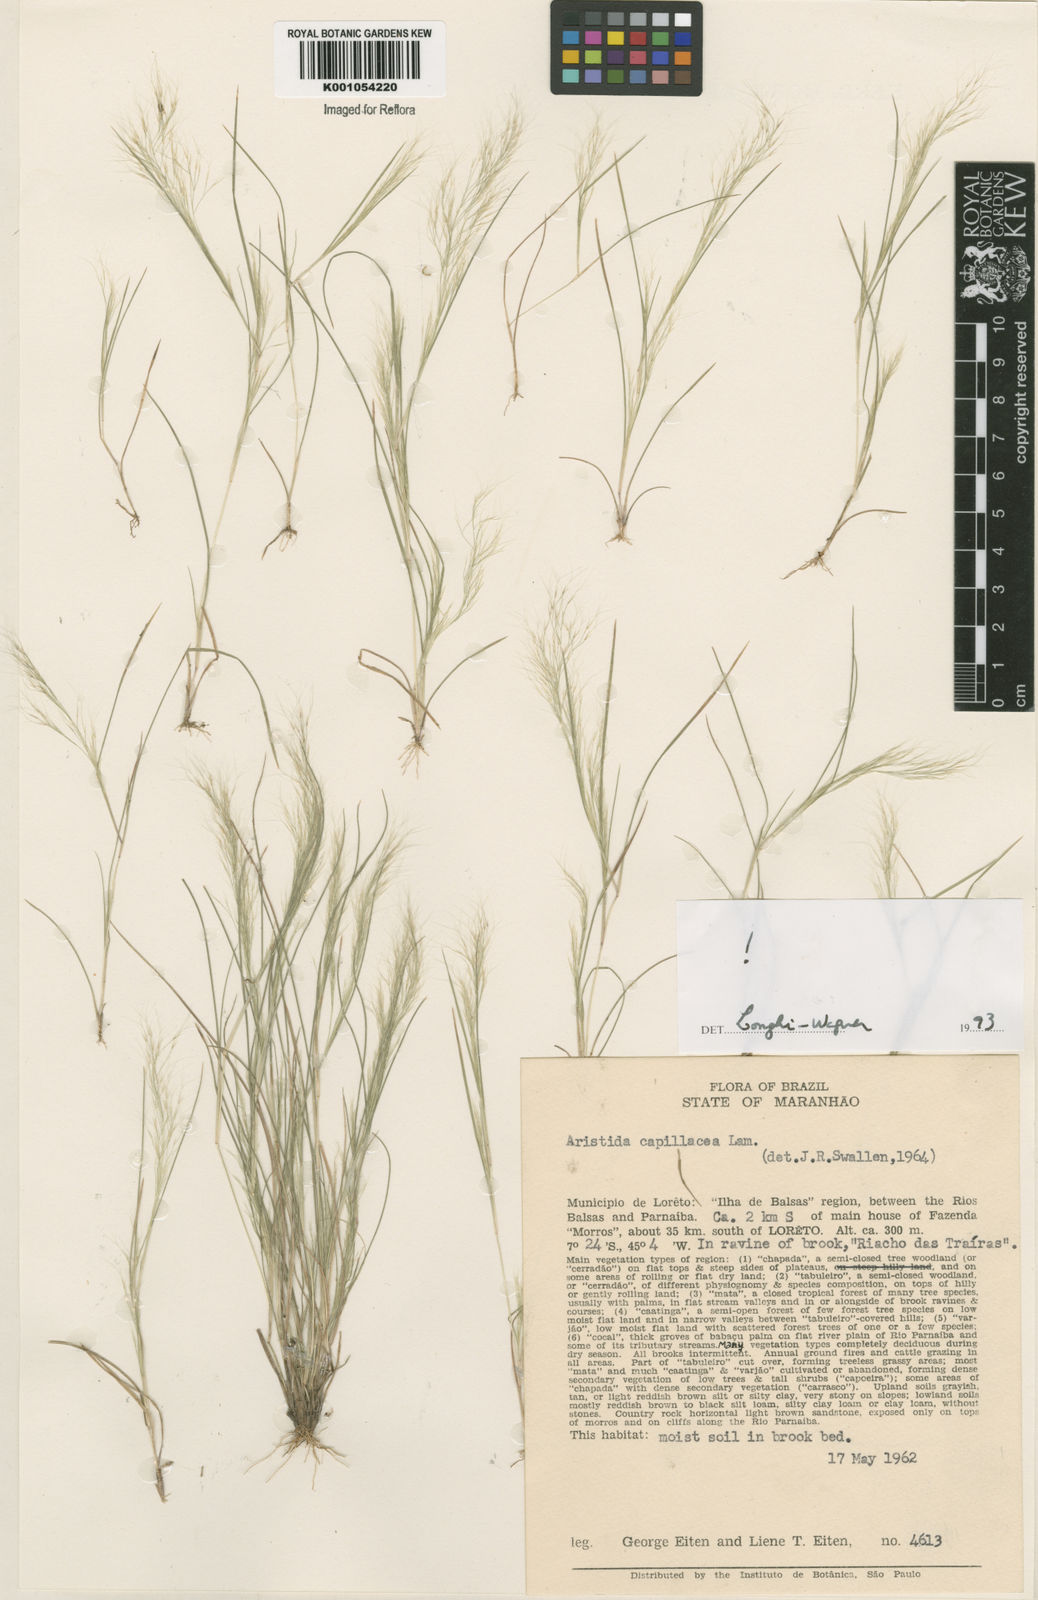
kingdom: Plantae
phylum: Tracheophyta
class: Liliopsida
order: Poales
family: Poaceae
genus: Aristida
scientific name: Aristida capillacea
